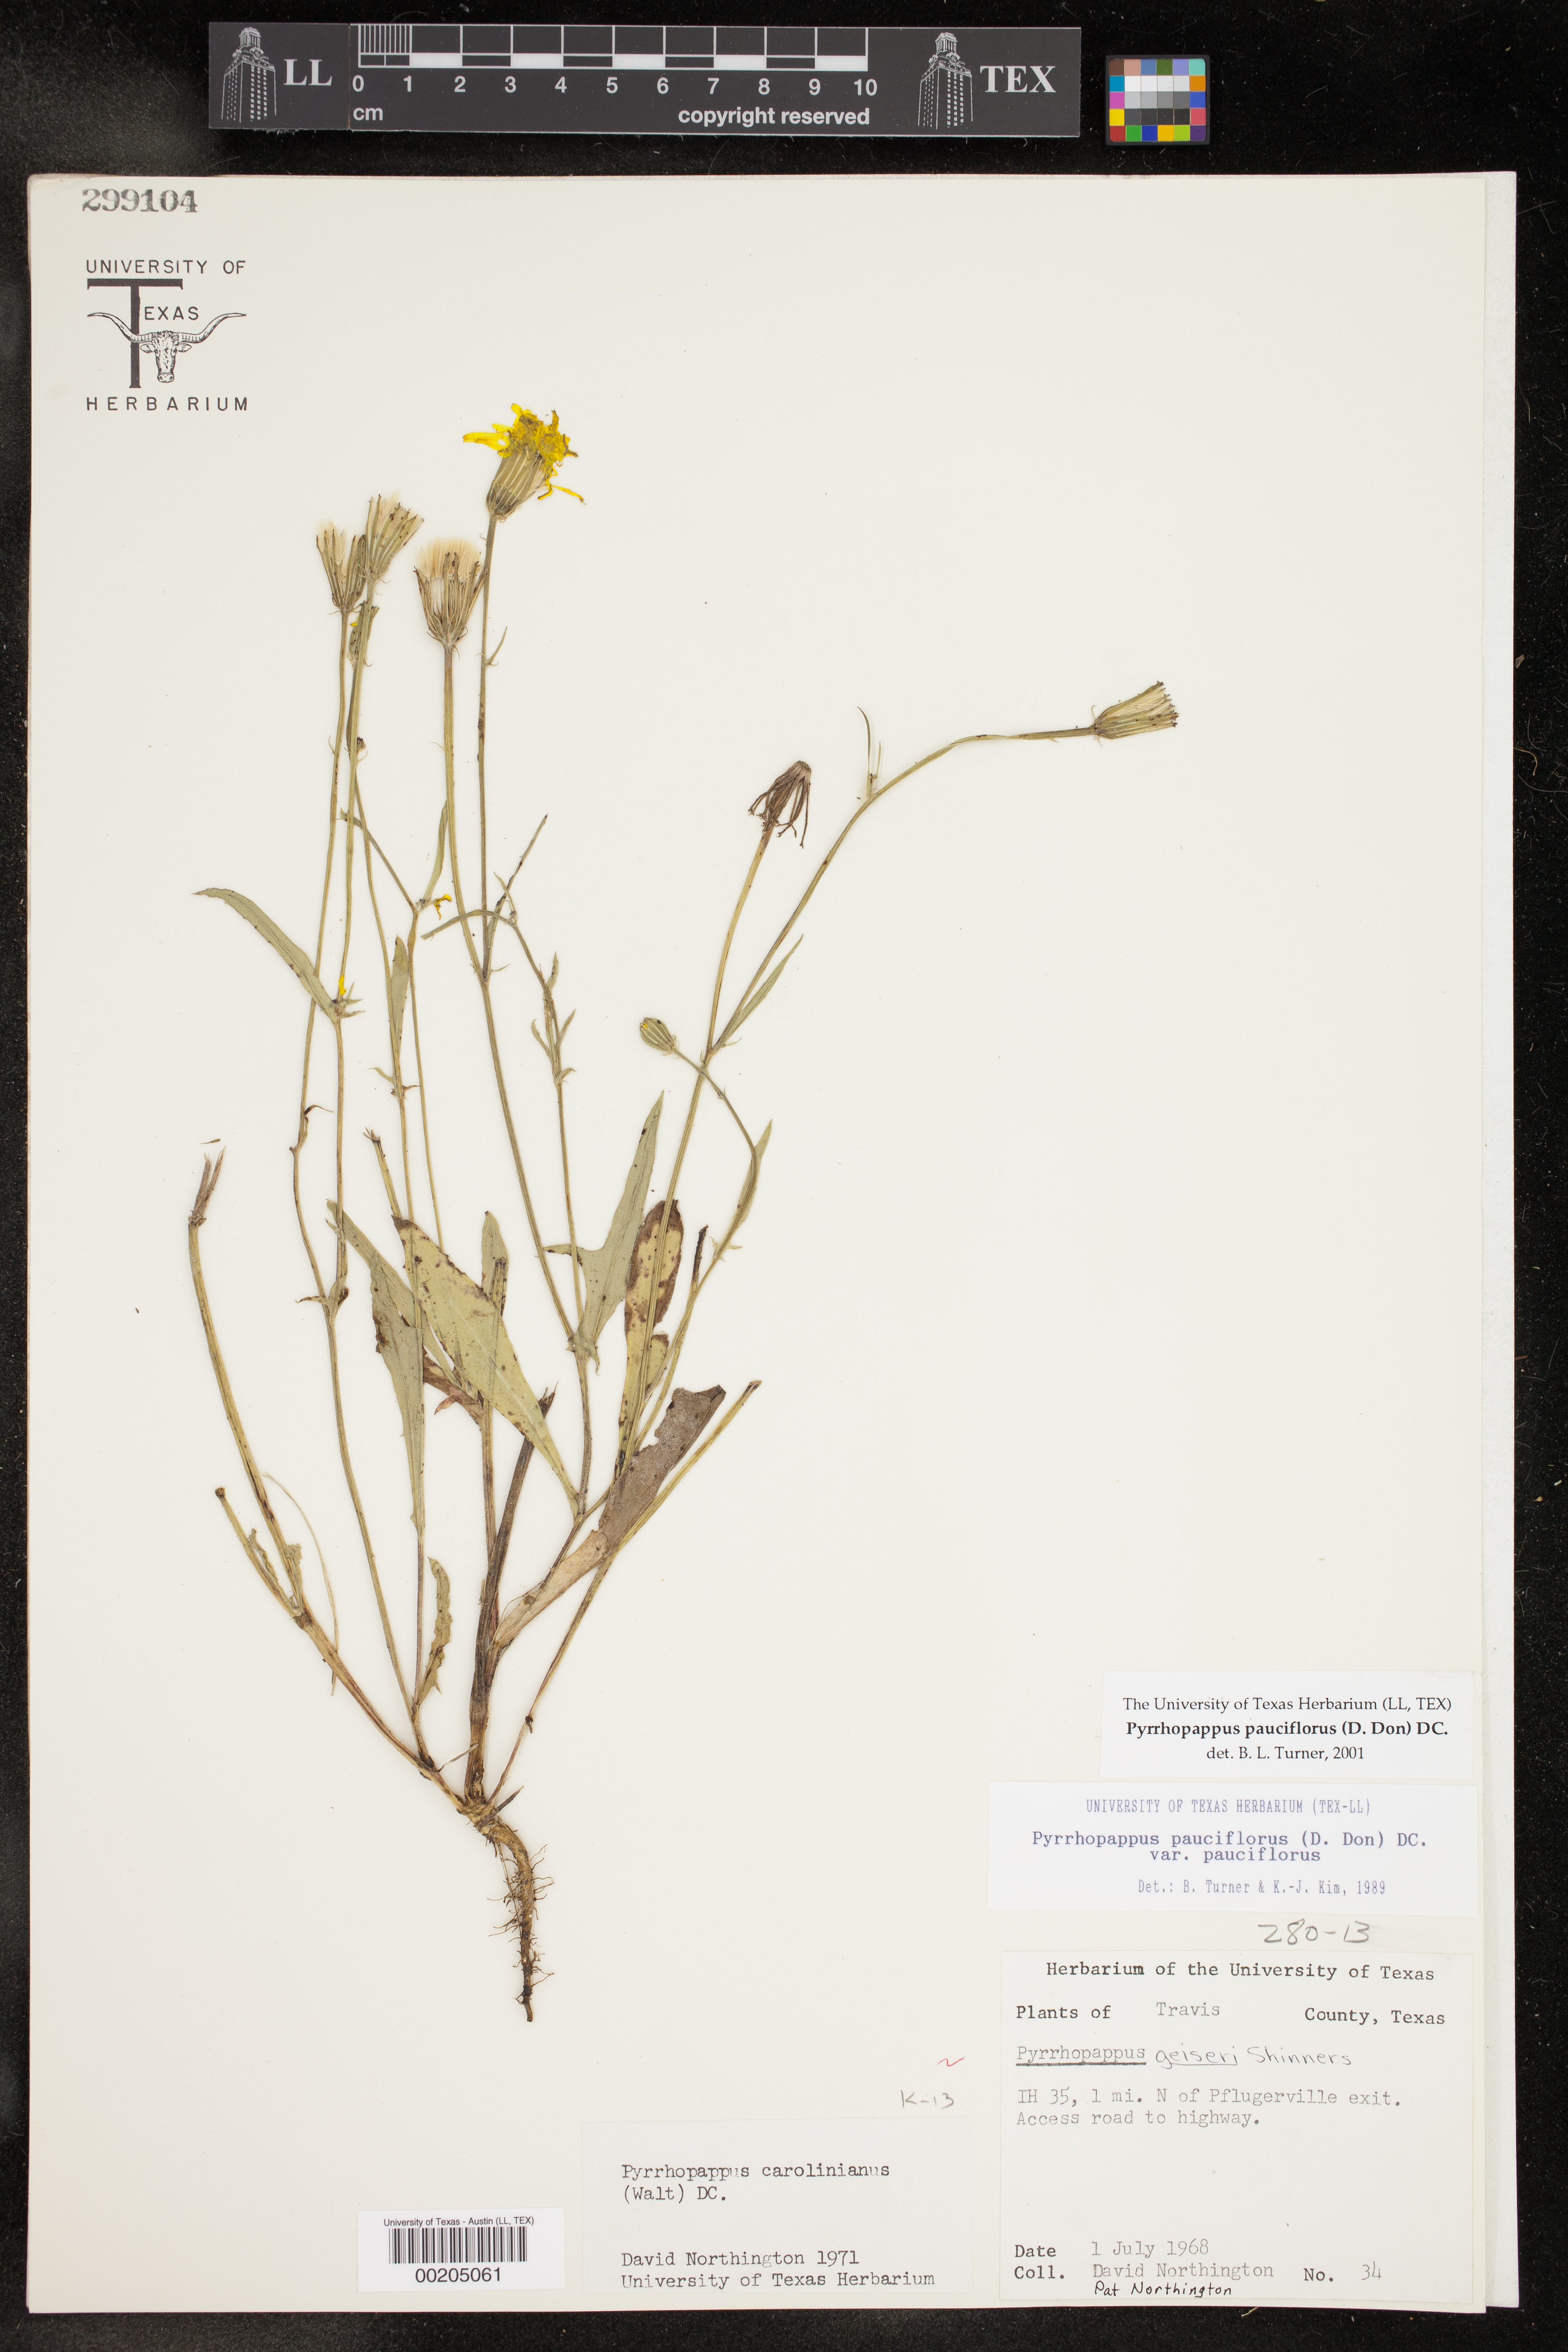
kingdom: Plantae
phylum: Tracheophyta
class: Magnoliopsida
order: Asterales
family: Asteraceae
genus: Pyrrhopappus
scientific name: Pyrrhopappus pauciflorus
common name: Texas false dandelion
